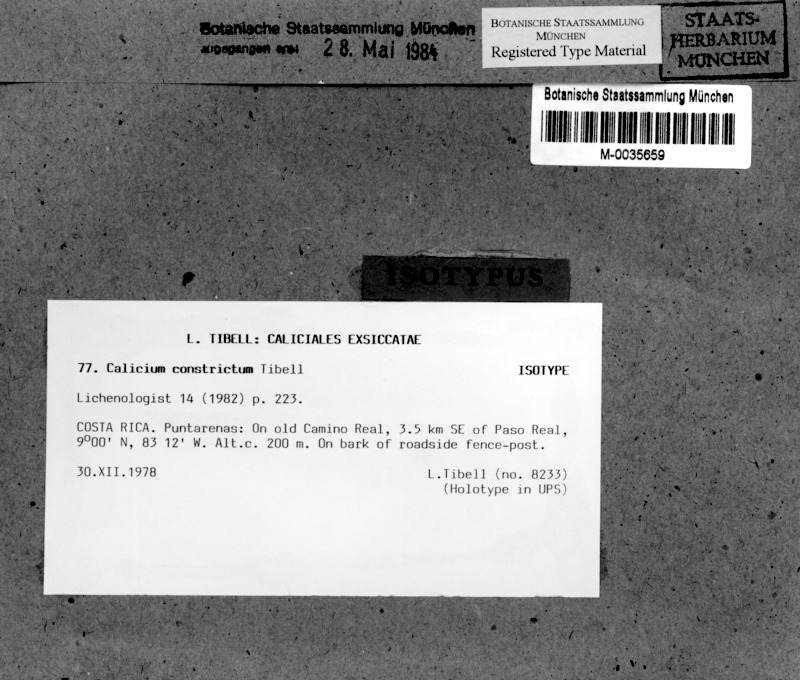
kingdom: Fungi
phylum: Ascomycota
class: Lecanoromycetes
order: Caliciales
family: Caliciaceae
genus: Calicium
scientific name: Calicium constrictum
